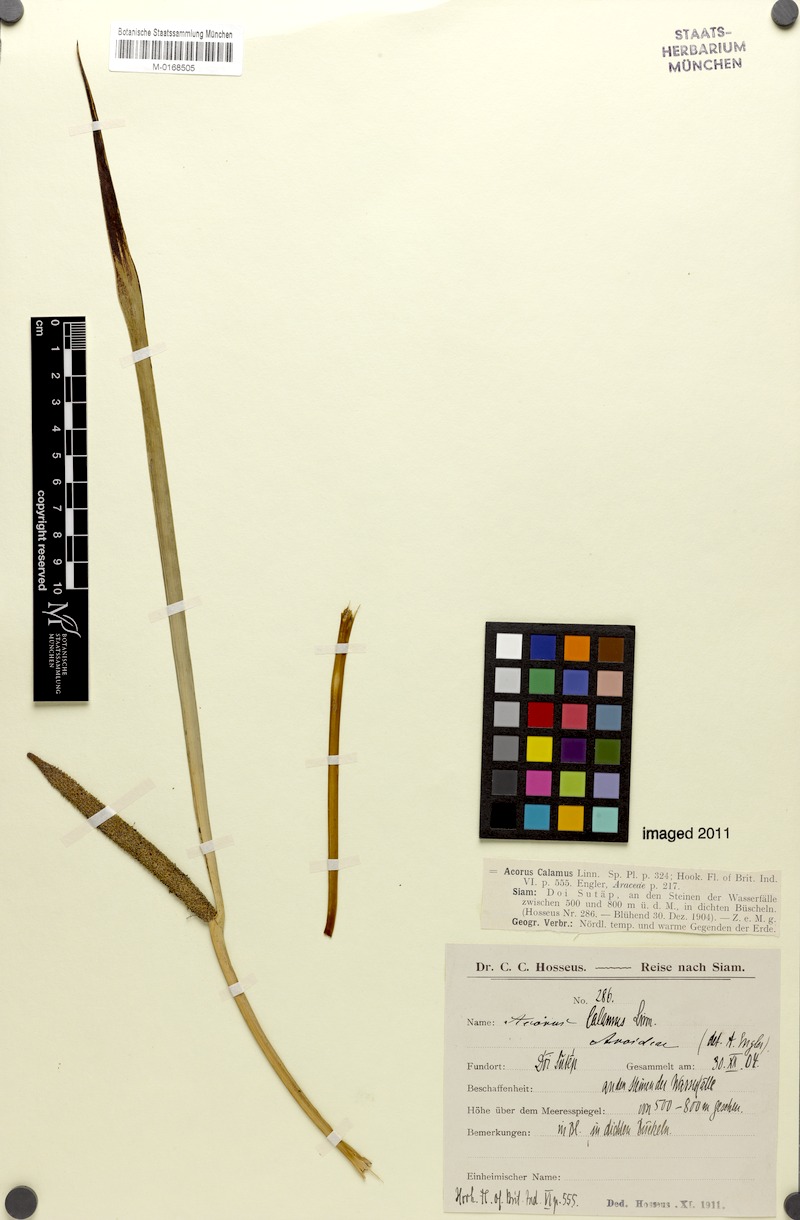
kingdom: Plantae
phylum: Tracheophyta
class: Liliopsida
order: Acorales
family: Acoraceae
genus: Acorus
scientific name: Acorus calamus
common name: Sweet-flag
